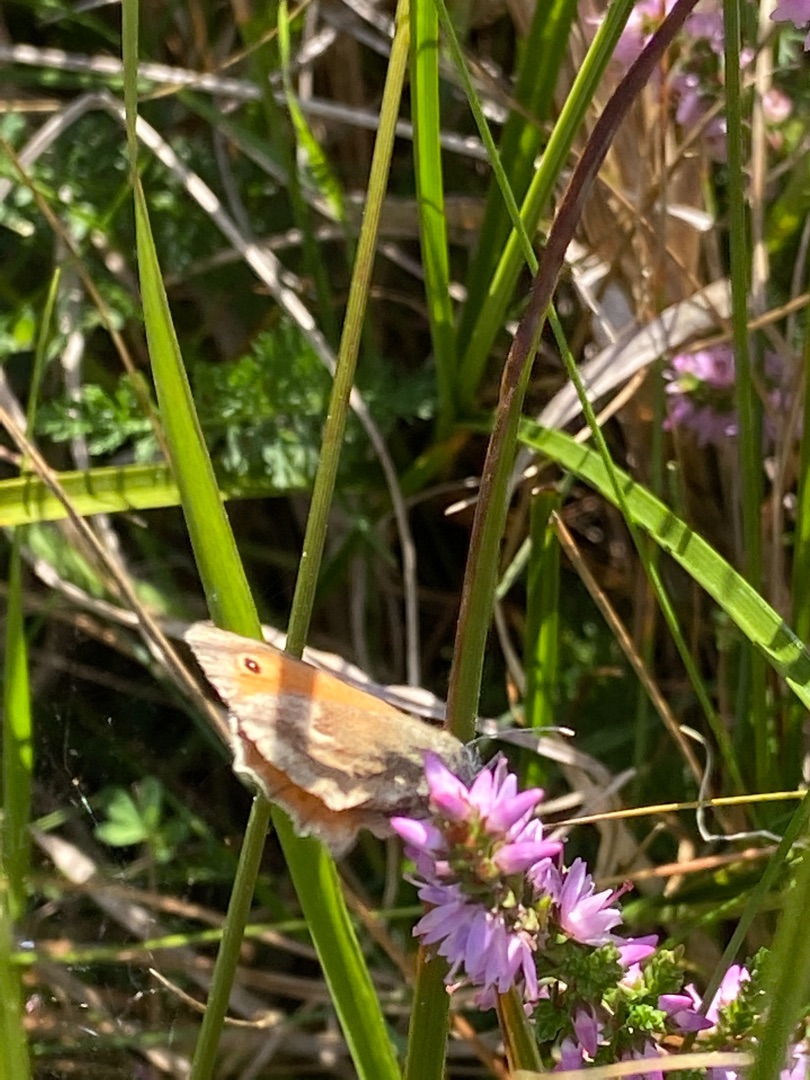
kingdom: Animalia
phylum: Arthropoda
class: Insecta
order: Lepidoptera
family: Nymphalidae
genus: Coenonympha
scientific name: Coenonympha pamphilus
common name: Okkergul randøje
